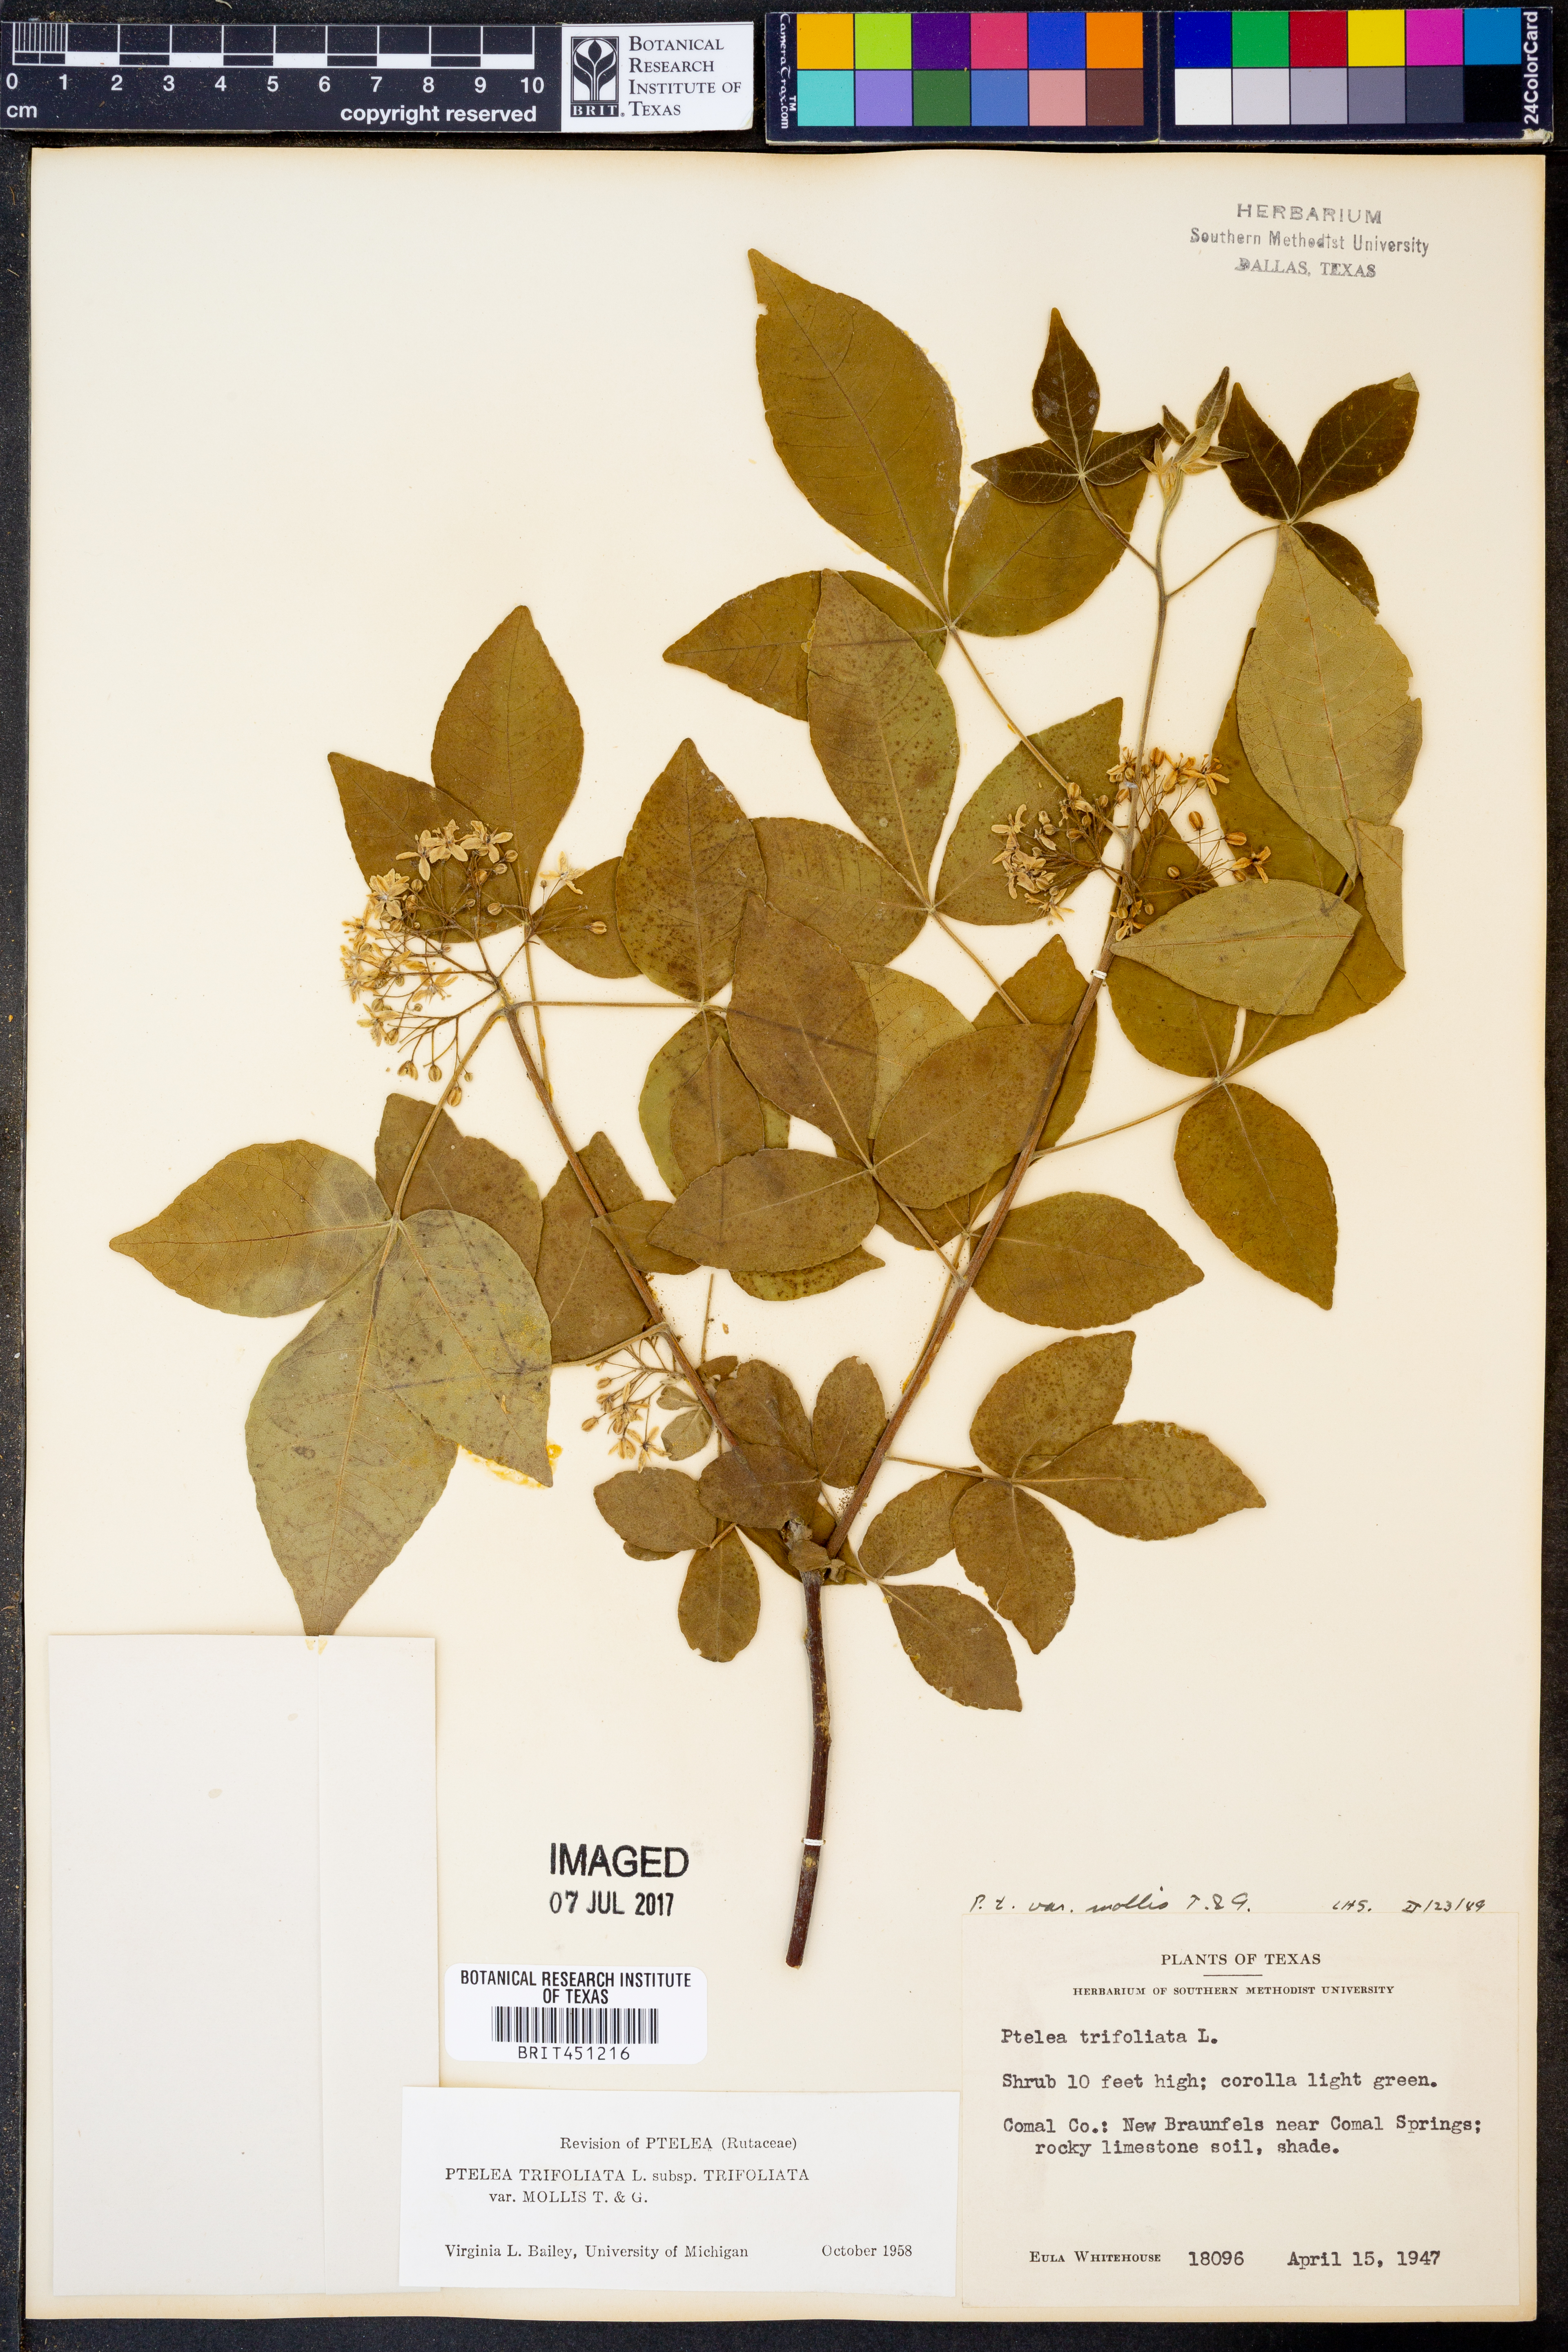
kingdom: Plantae
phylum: Tracheophyta
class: Magnoliopsida
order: Sapindales
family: Rutaceae
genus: Ptelea
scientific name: Ptelea trifoliata
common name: Common hop-tree
